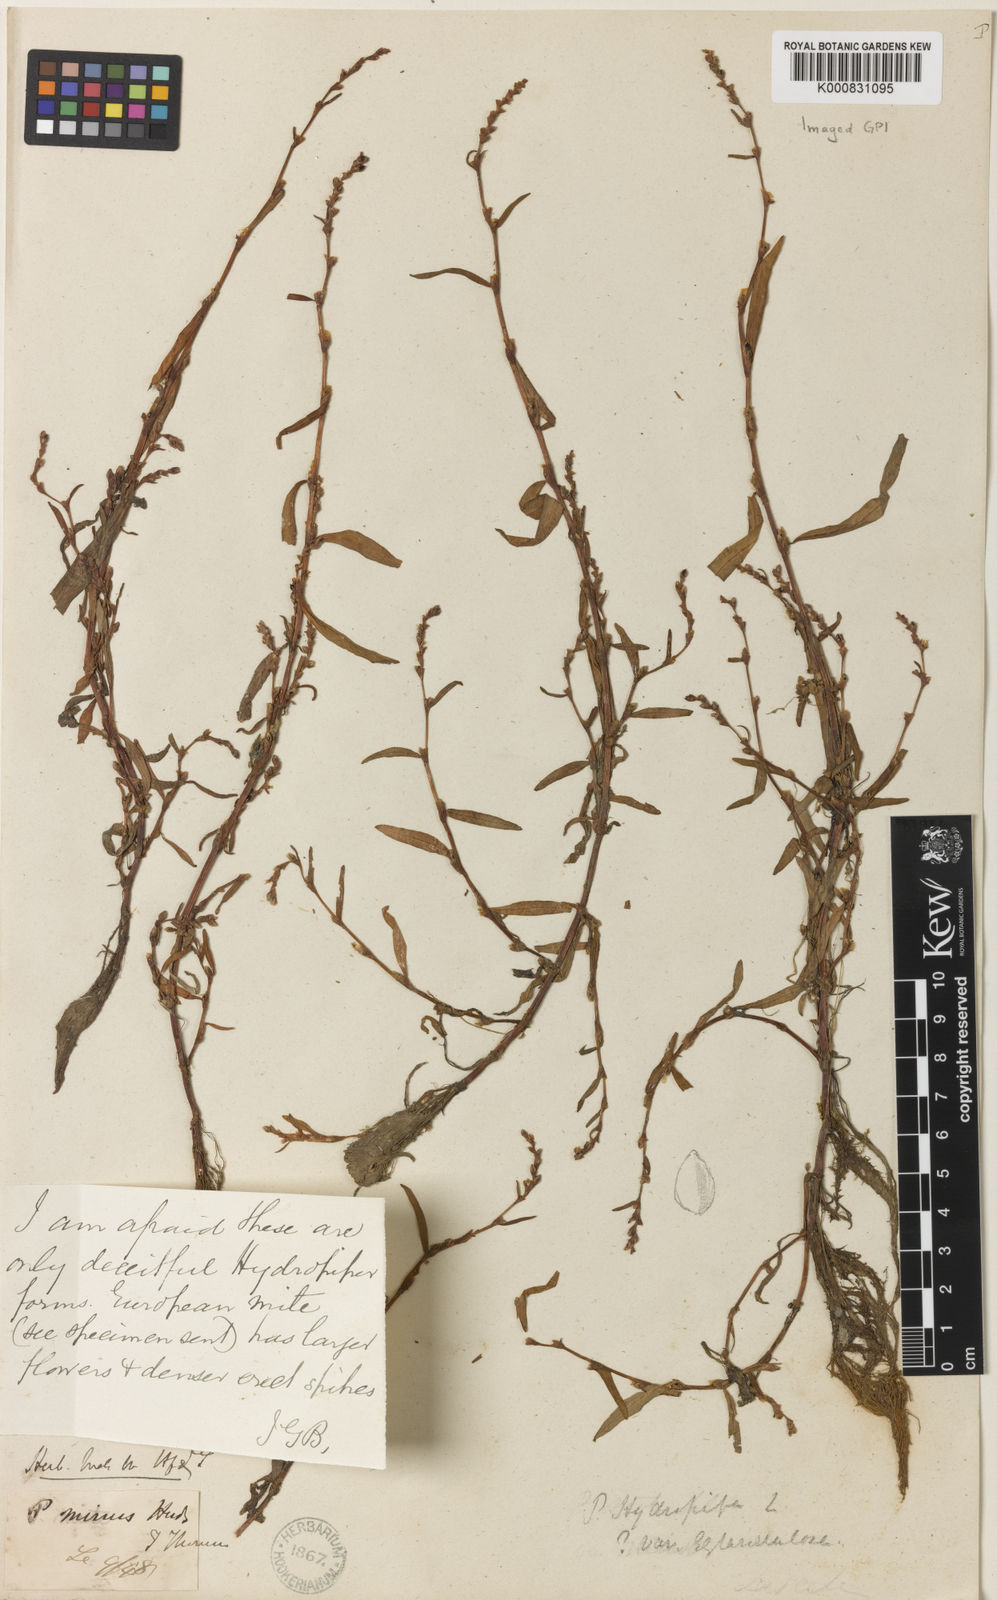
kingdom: Plantae
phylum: Tracheophyta
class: Magnoliopsida
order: Caryophyllales
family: Polygonaceae
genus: Persicaria
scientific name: Persicaria hydropiper
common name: Water-pepper
